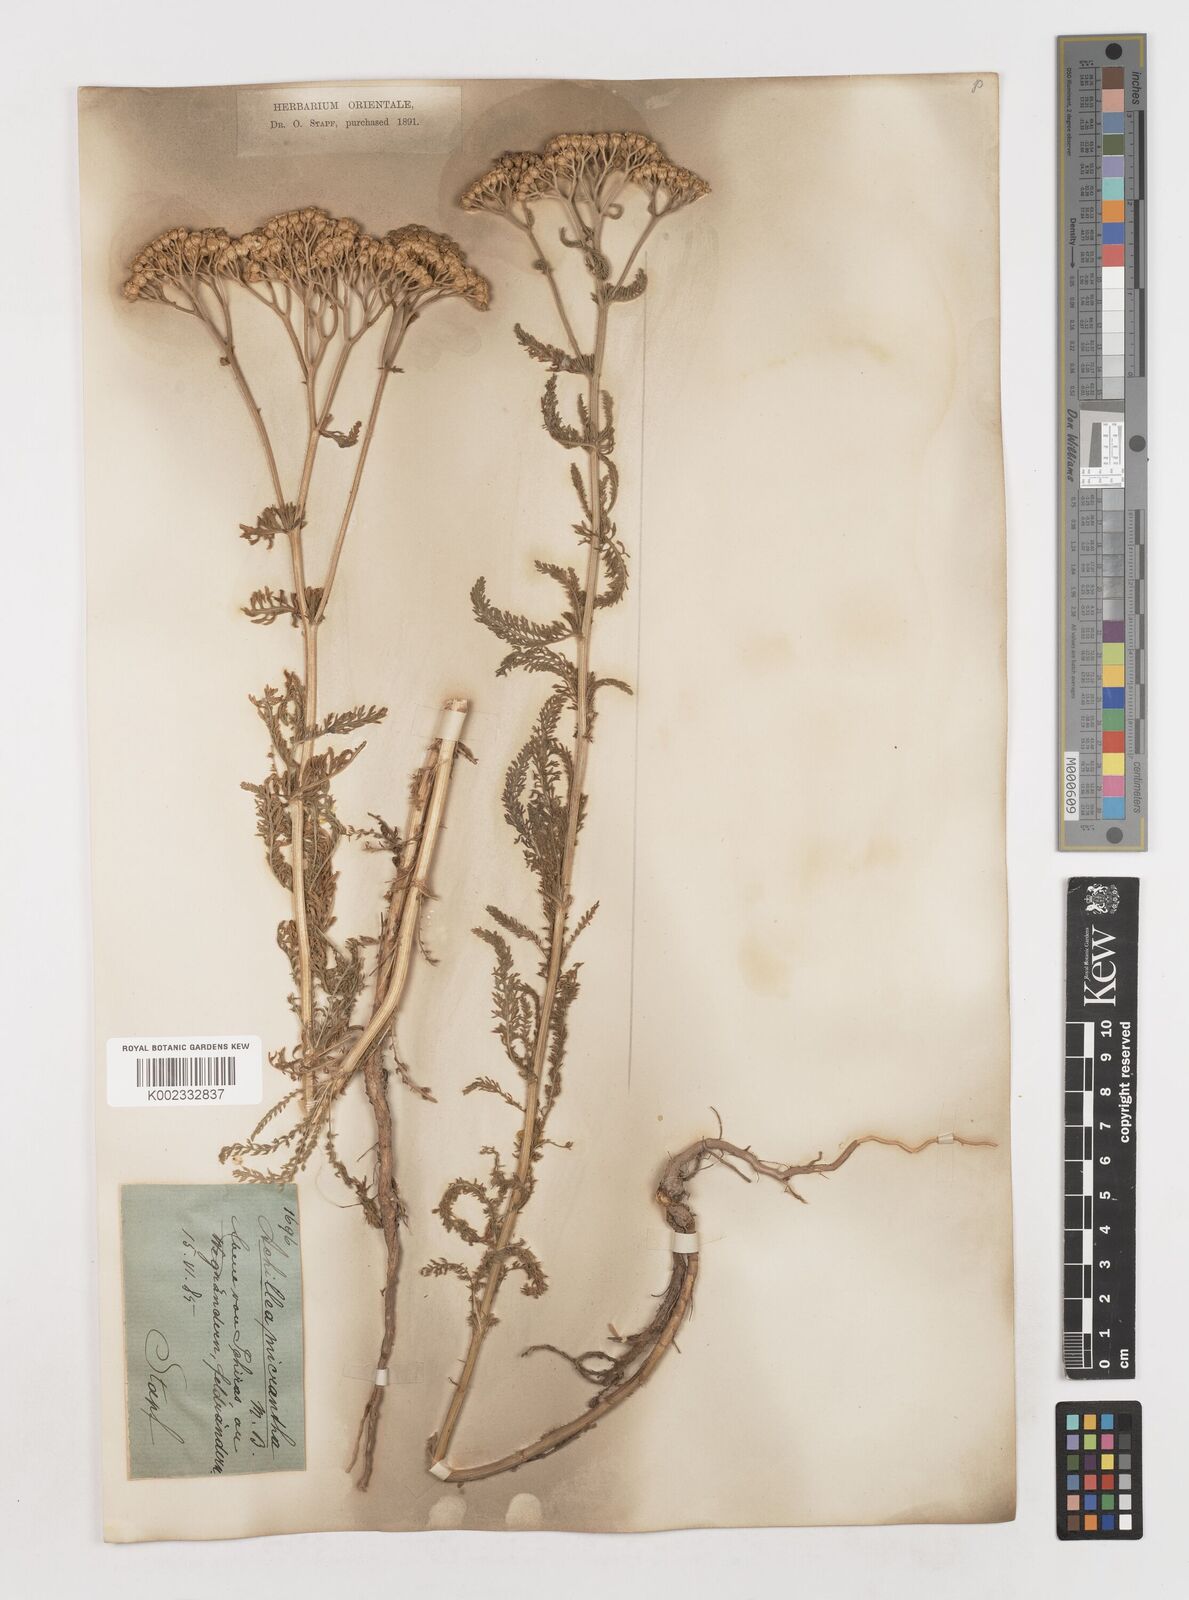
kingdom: Plantae
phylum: Tracheophyta
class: Magnoliopsida
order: Asterales
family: Asteraceae
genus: Achillea
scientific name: Achillea micrantha
